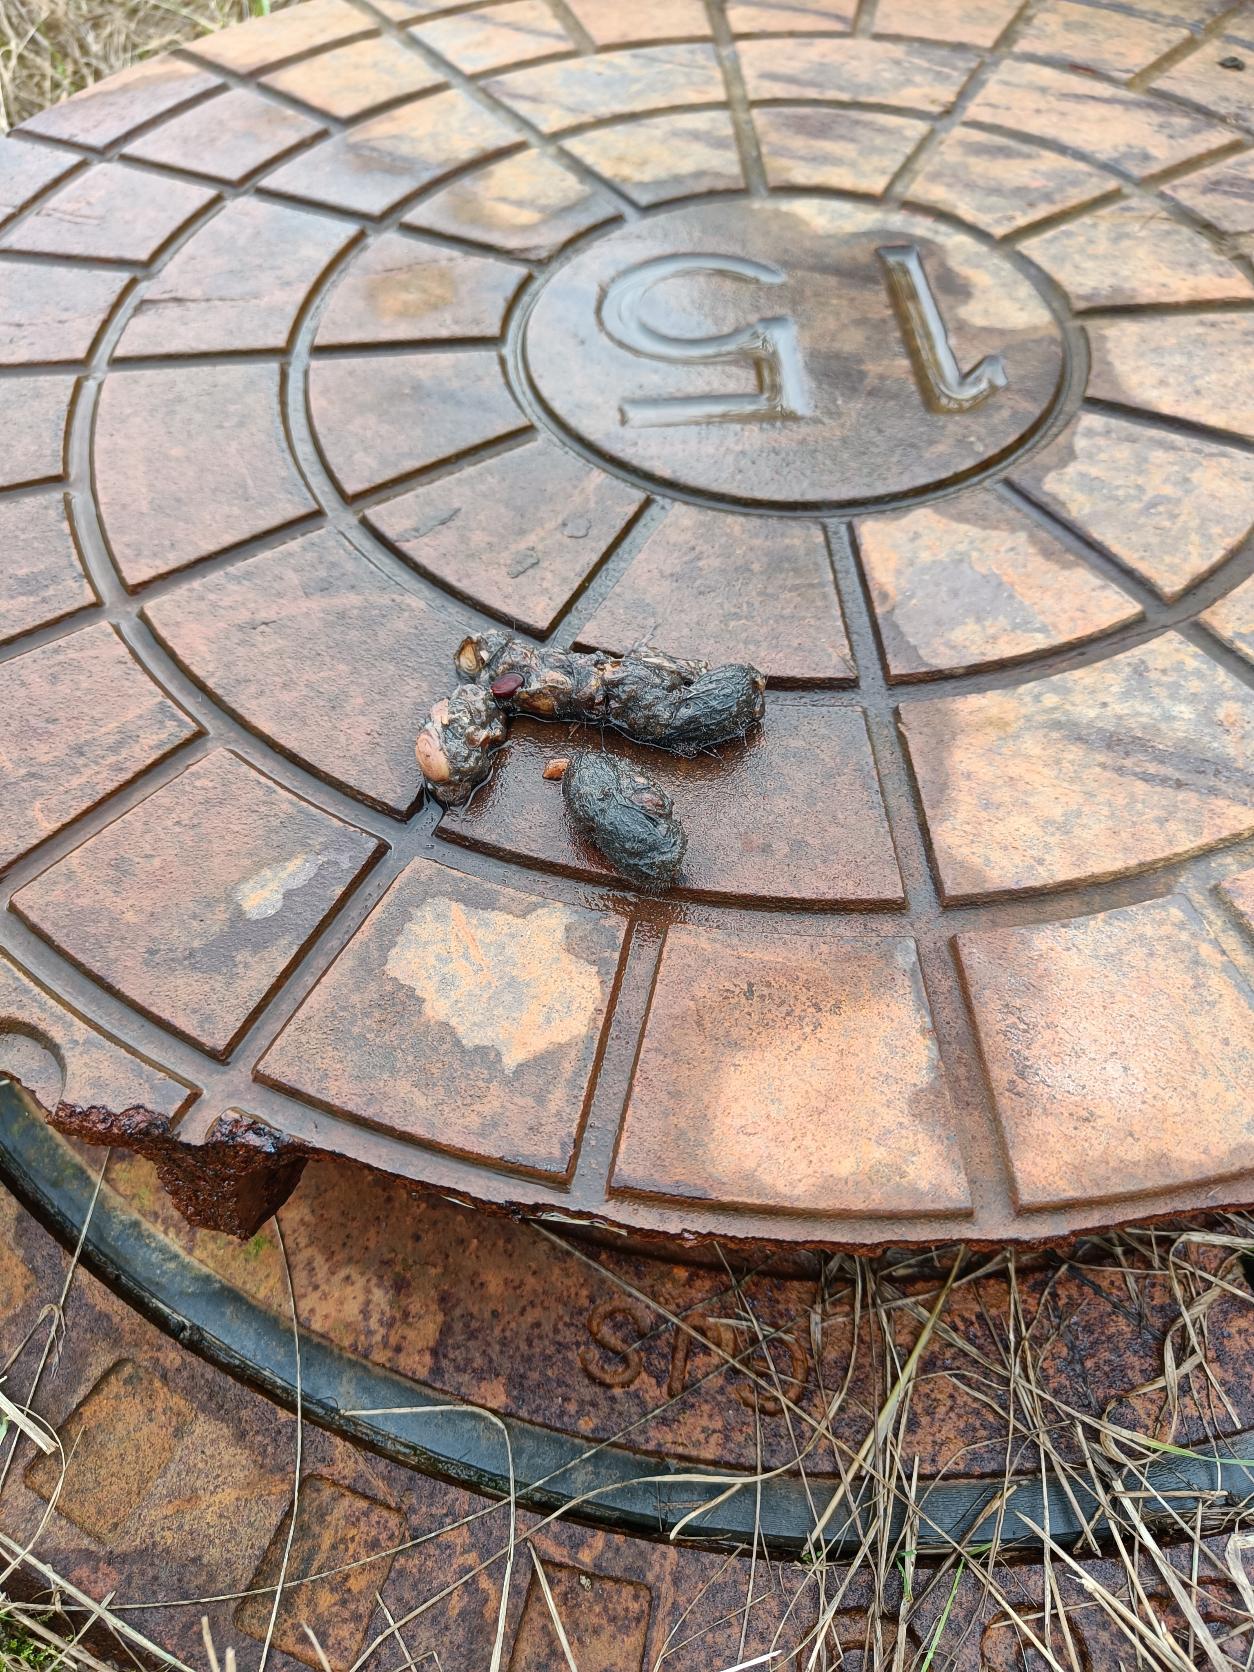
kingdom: Animalia
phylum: Chordata
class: Mammalia
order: Carnivora
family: Canidae
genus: Vulpes
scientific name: Vulpes vulpes
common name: Ræv
